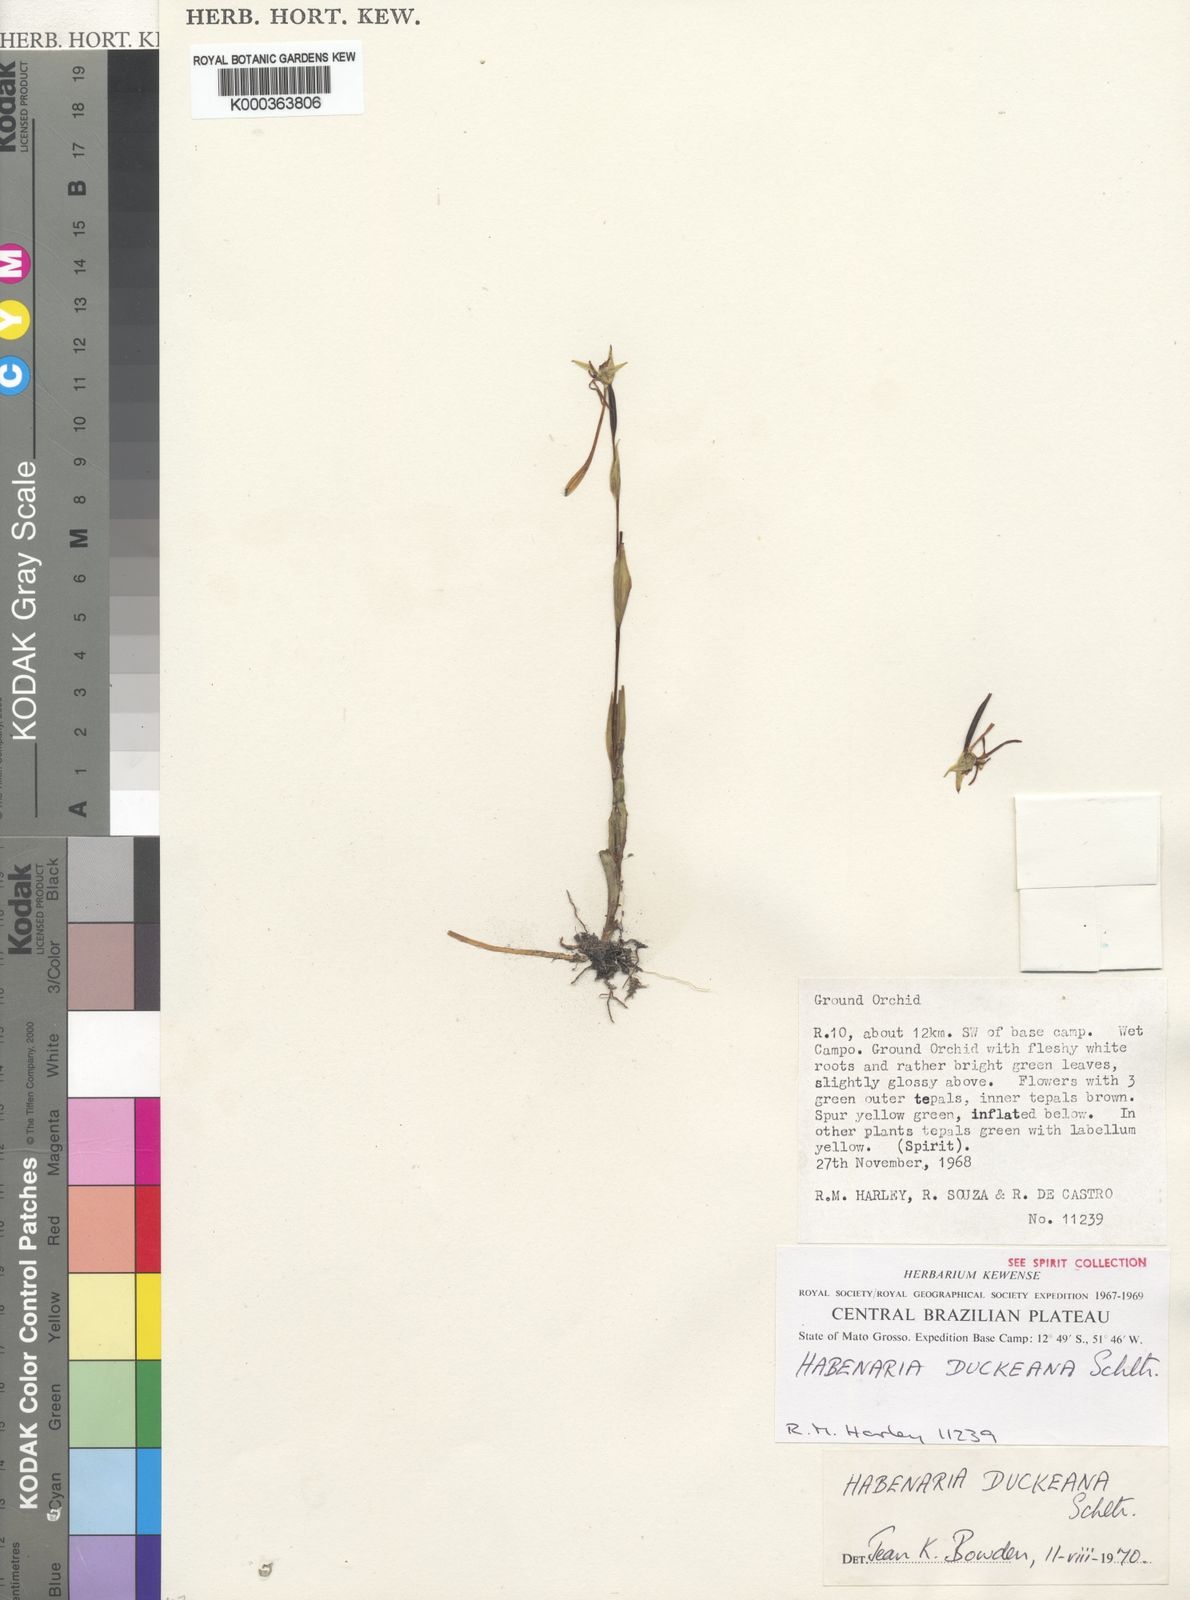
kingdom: Plantae
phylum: Tracheophyta
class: Liliopsida
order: Asparagales
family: Orchidaceae
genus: Habenaria
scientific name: Habenaria trifida
